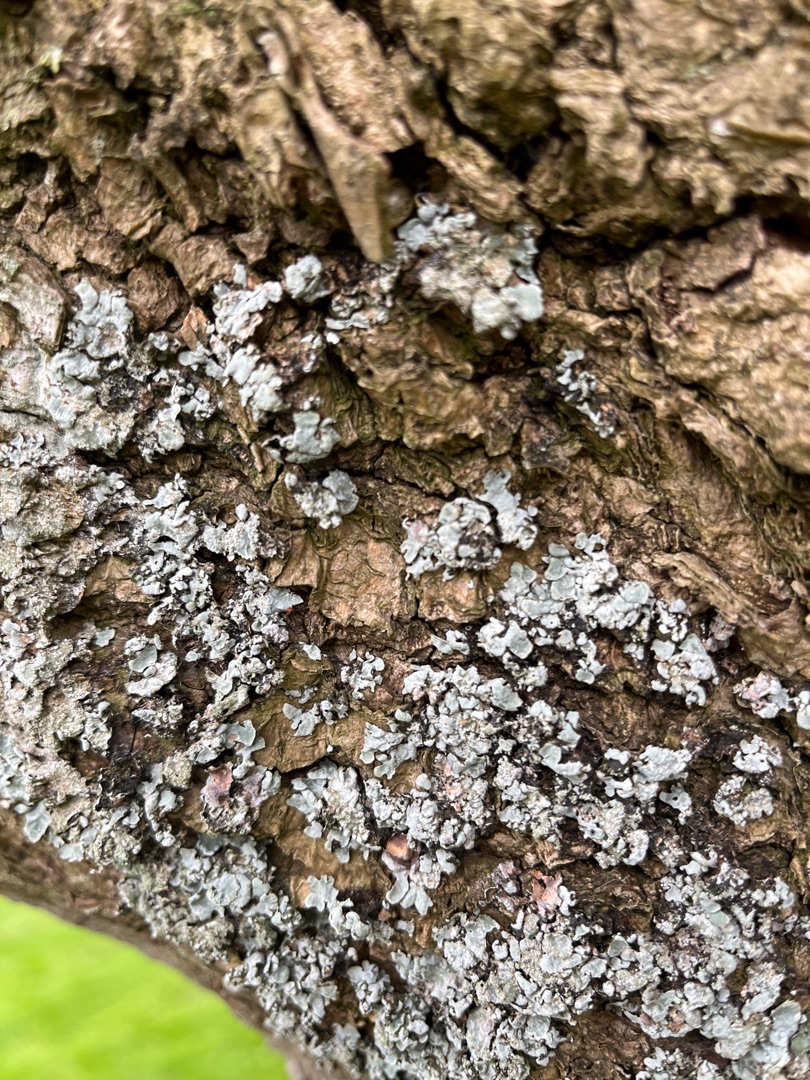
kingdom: Fungi
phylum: Ascomycota
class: Lecanoromycetes
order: Lecanorales
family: Parmeliaceae
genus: Parmelia
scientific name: Parmelia sulcata
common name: Rynket skållav
